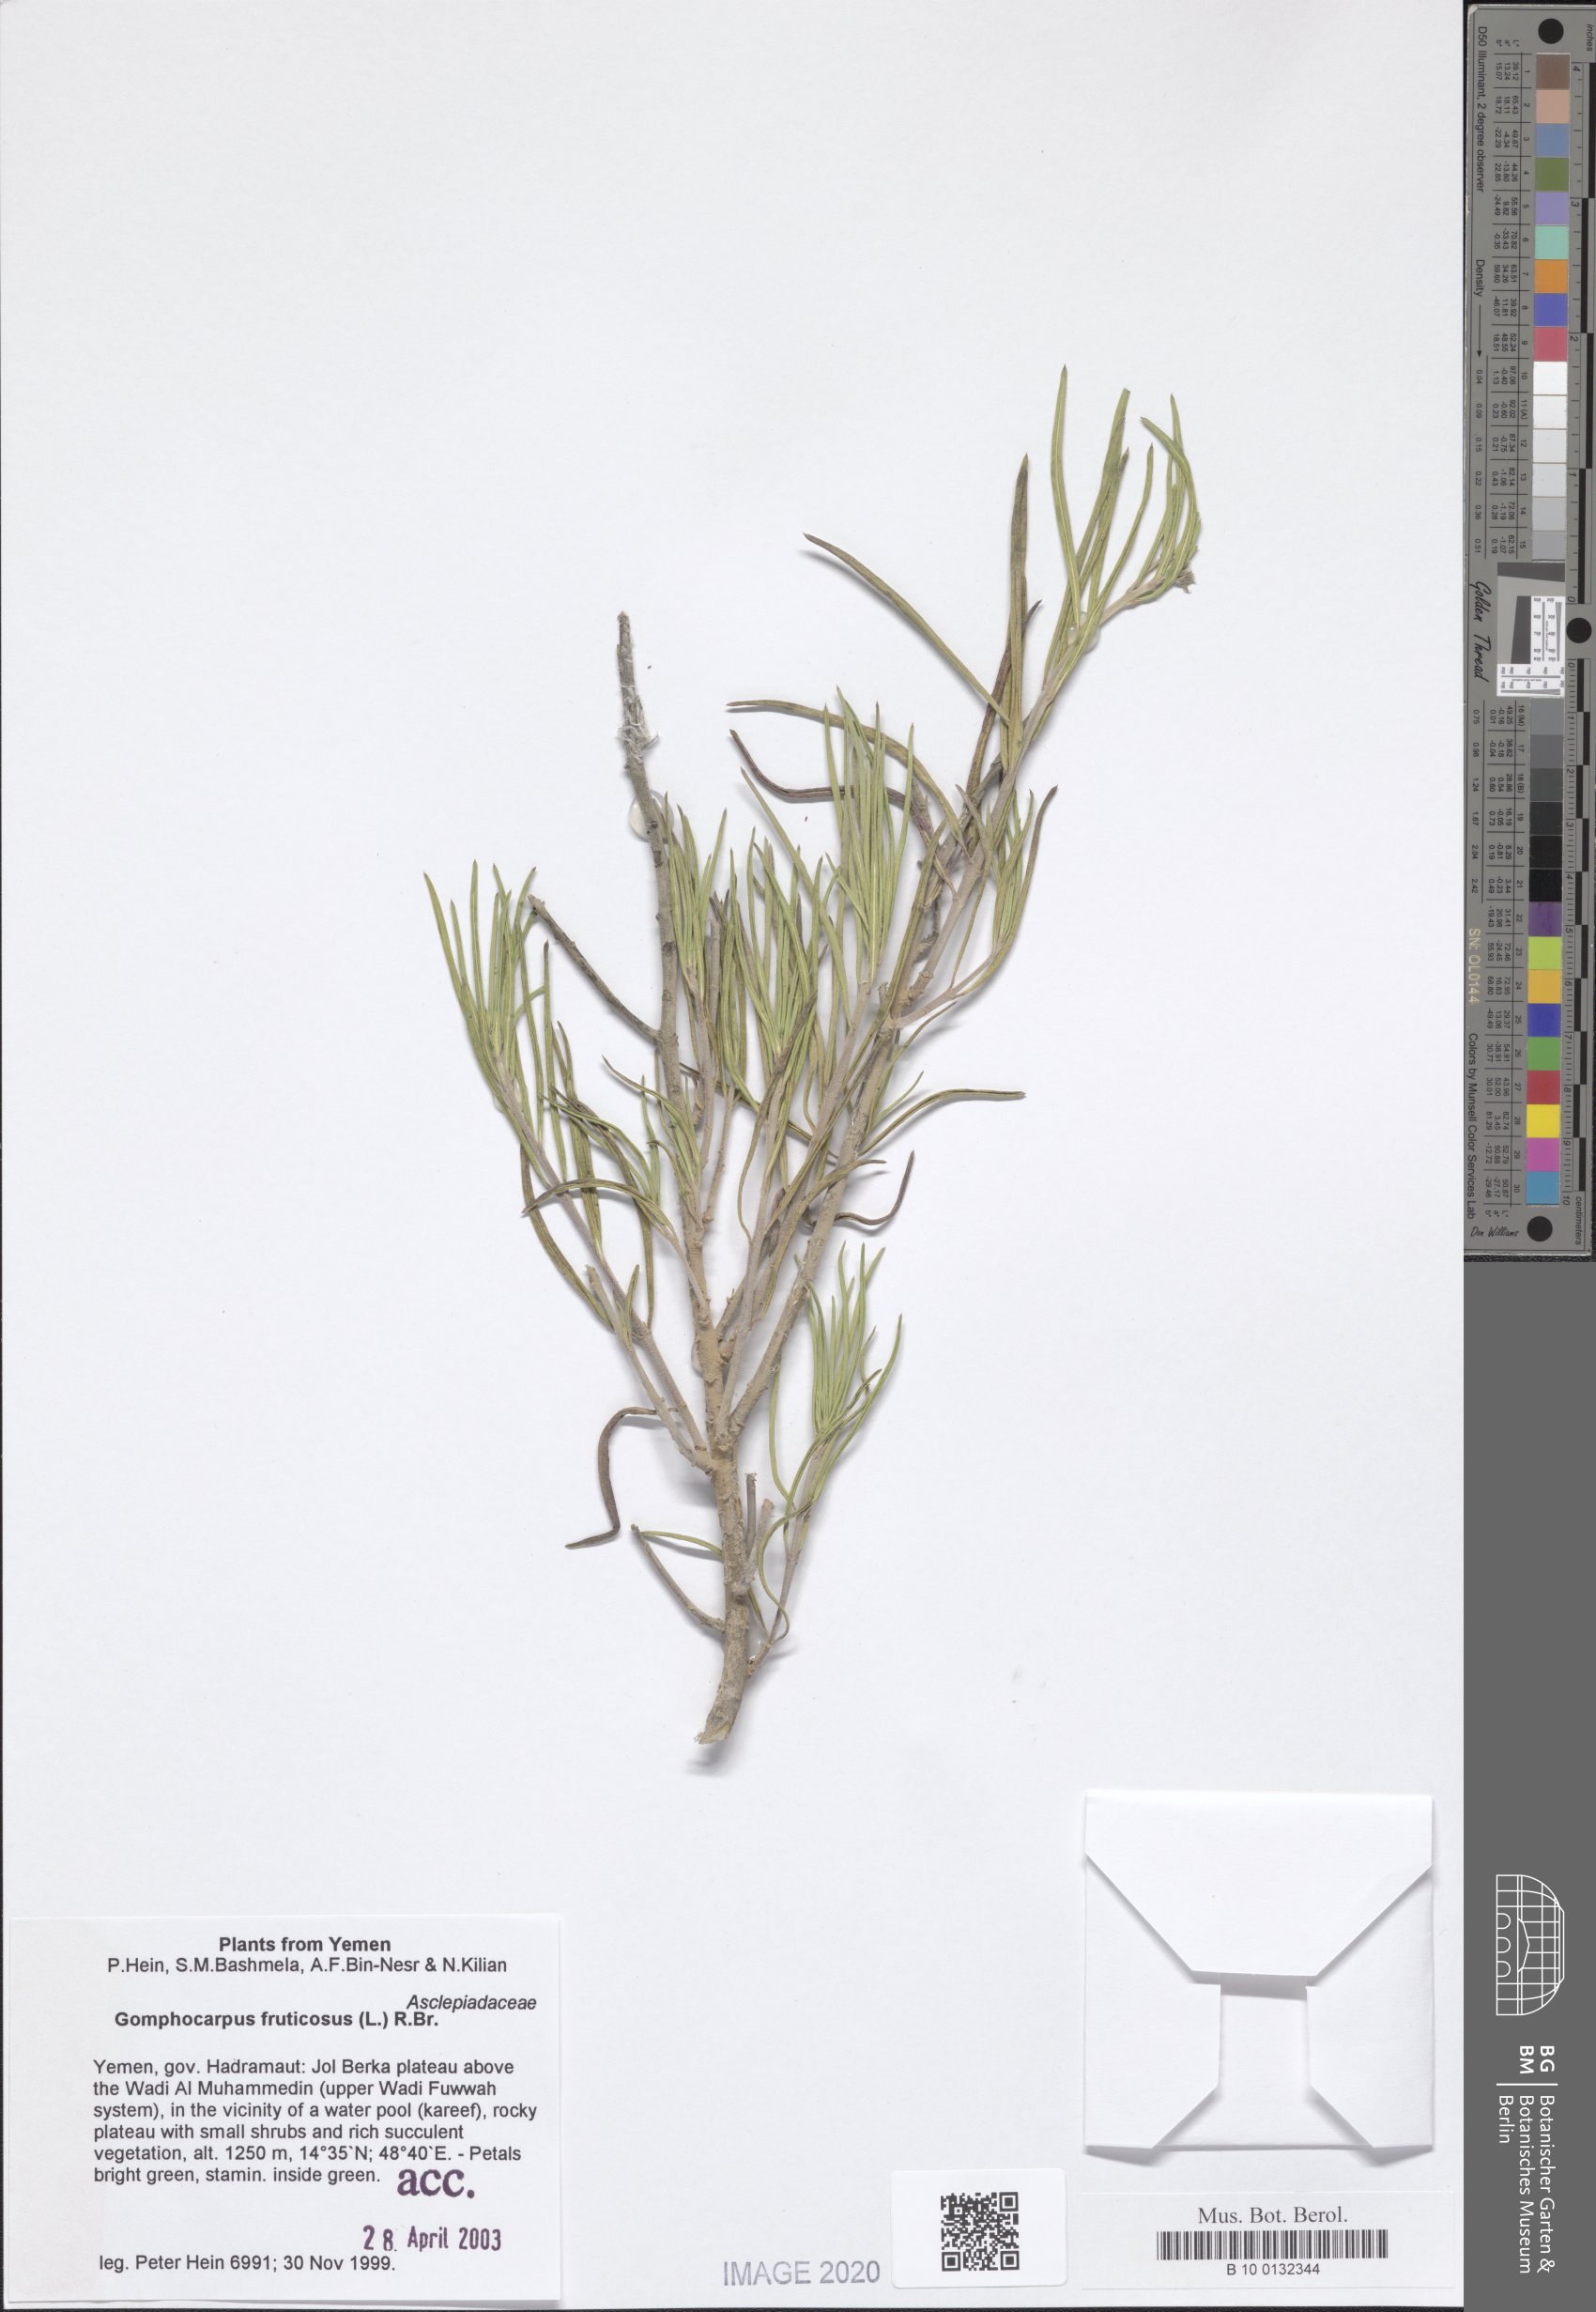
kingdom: Plantae
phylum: Tracheophyta
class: Magnoliopsida
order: Gentianales
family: Apocynaceae
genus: Gomphocarpus
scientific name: Gomphocarpus physocarpus
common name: Balloon cotton bush
